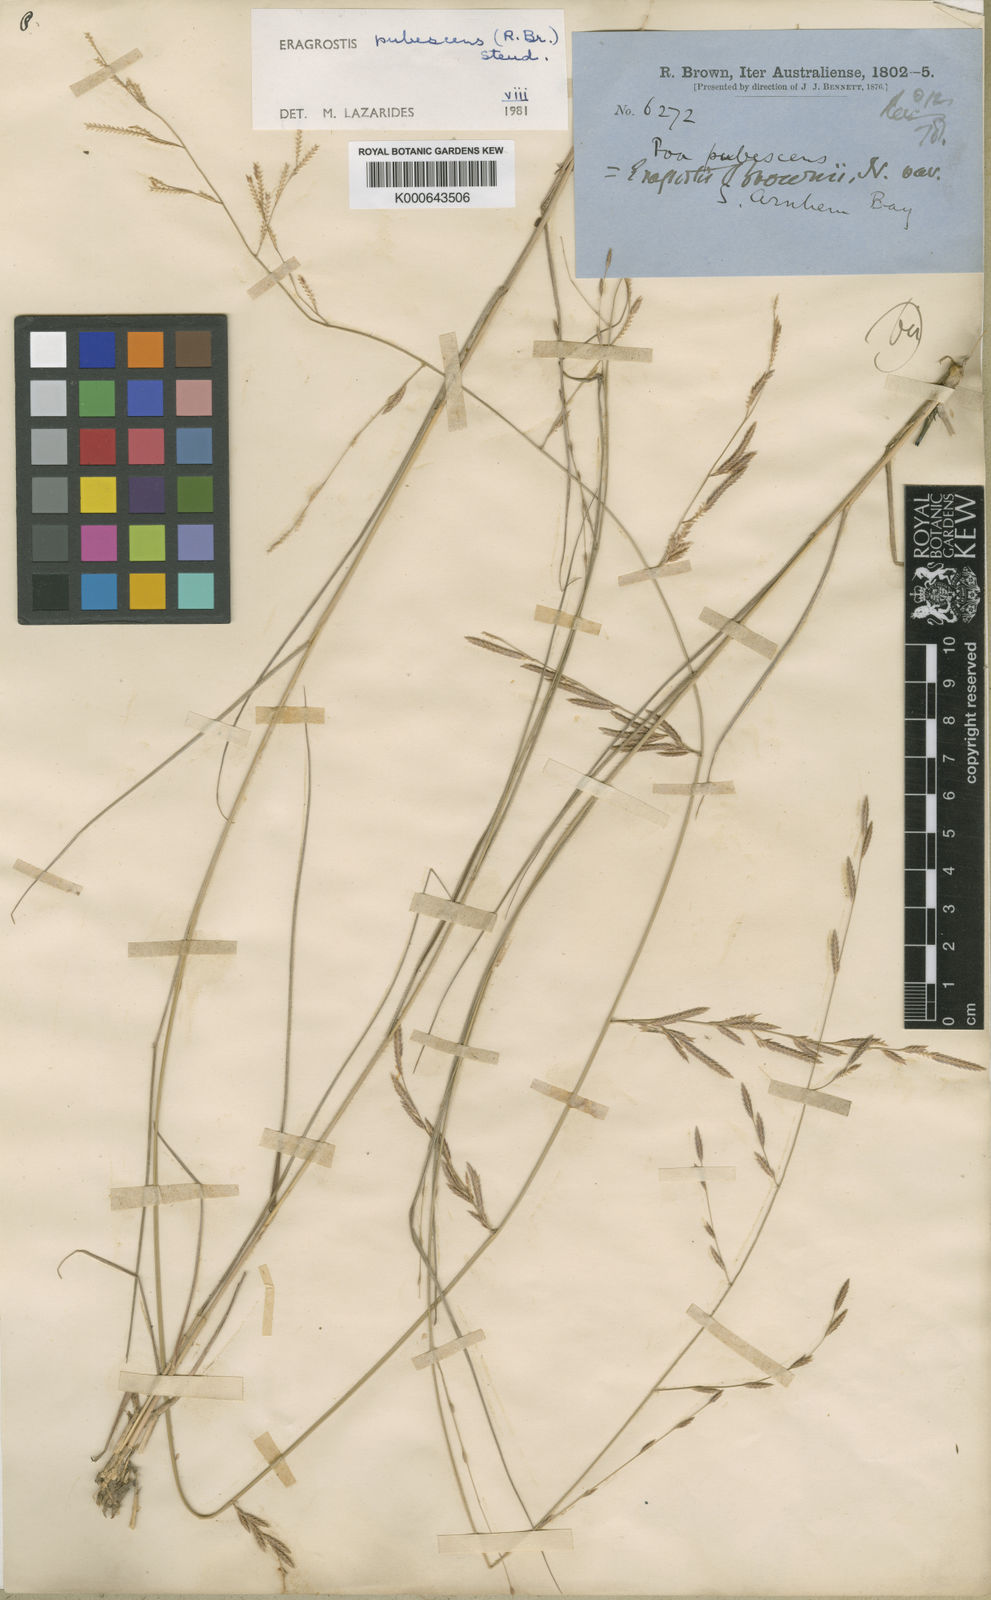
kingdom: Plantae
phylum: Tracheophyta
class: Liliopsida
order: Poales
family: Poaceae
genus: Eragrostis
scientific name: Eragrostis pubescens
